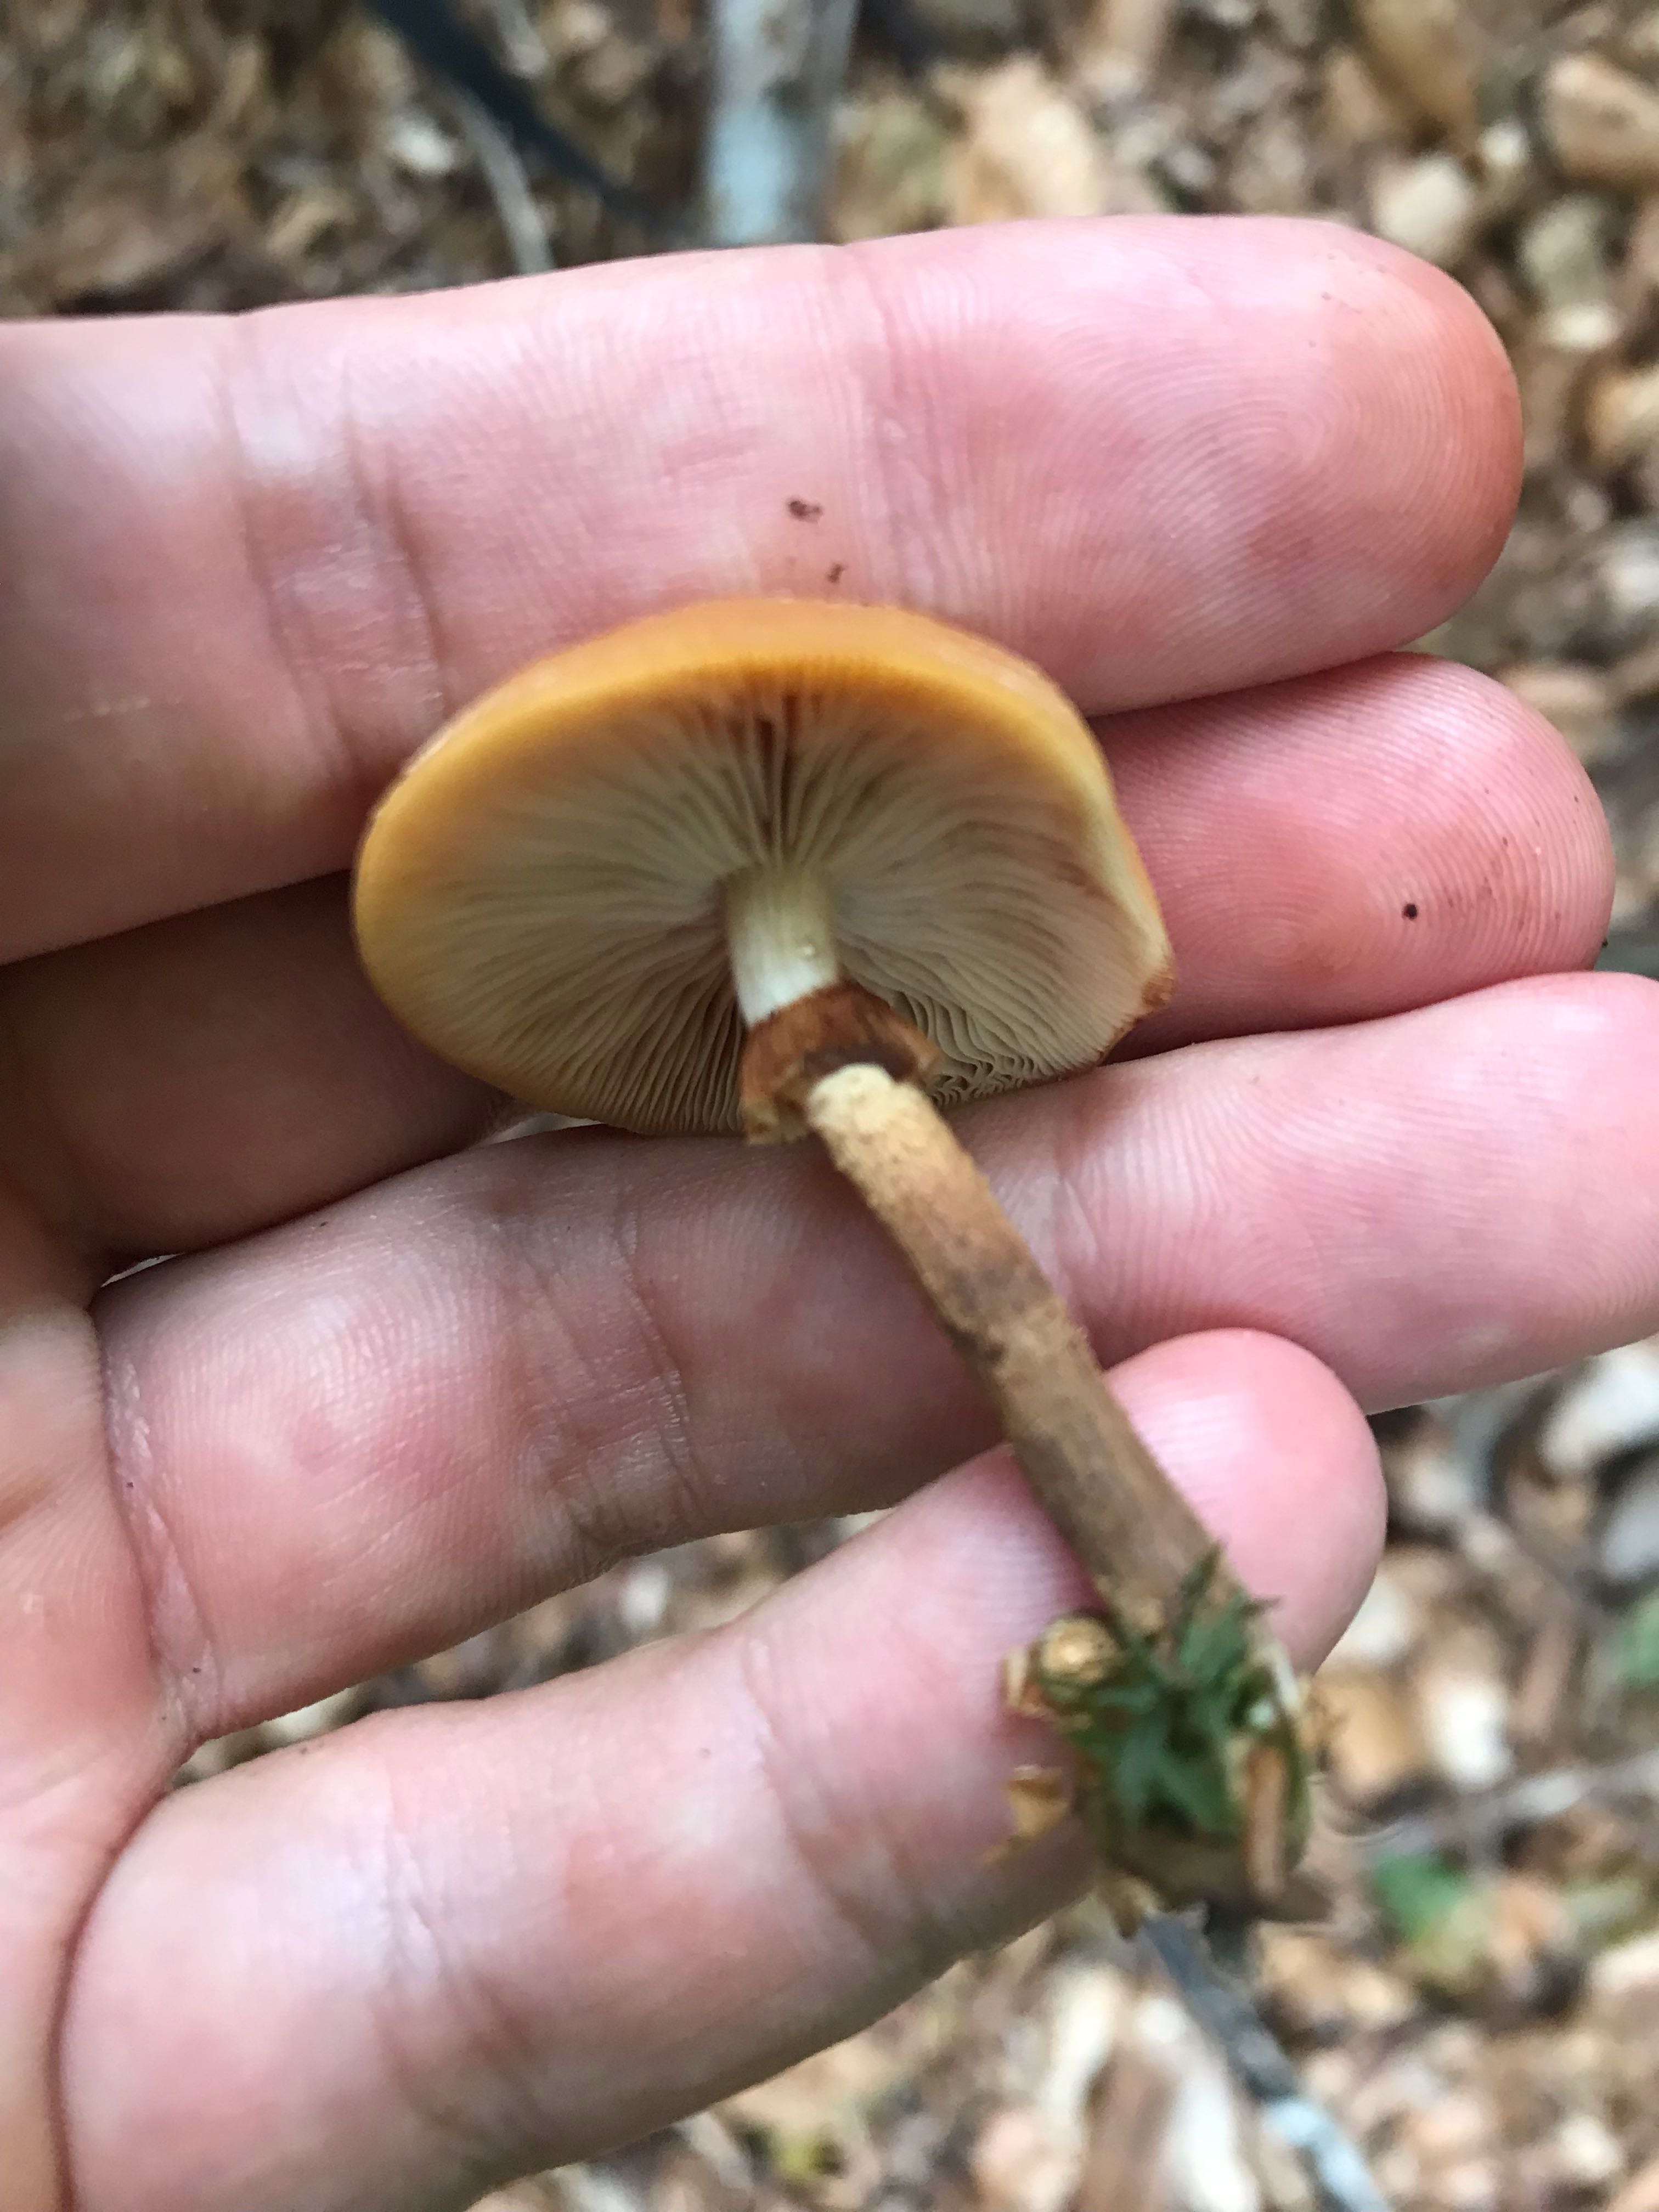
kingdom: Fungi
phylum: Basidiomycota
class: Agaricomycetes
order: Agaricales
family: Strophariaceae
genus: Kuehneromyces
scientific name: Kuehneromyces mutabilis
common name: foranderlig skælhat
